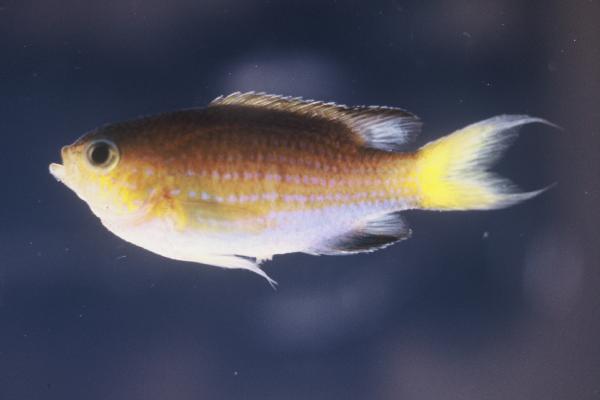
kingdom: Animalia
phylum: Chordata
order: Perciformes
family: Pomacentridae
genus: Chromis
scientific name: Chromis nigrura
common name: Blacktail chromis
